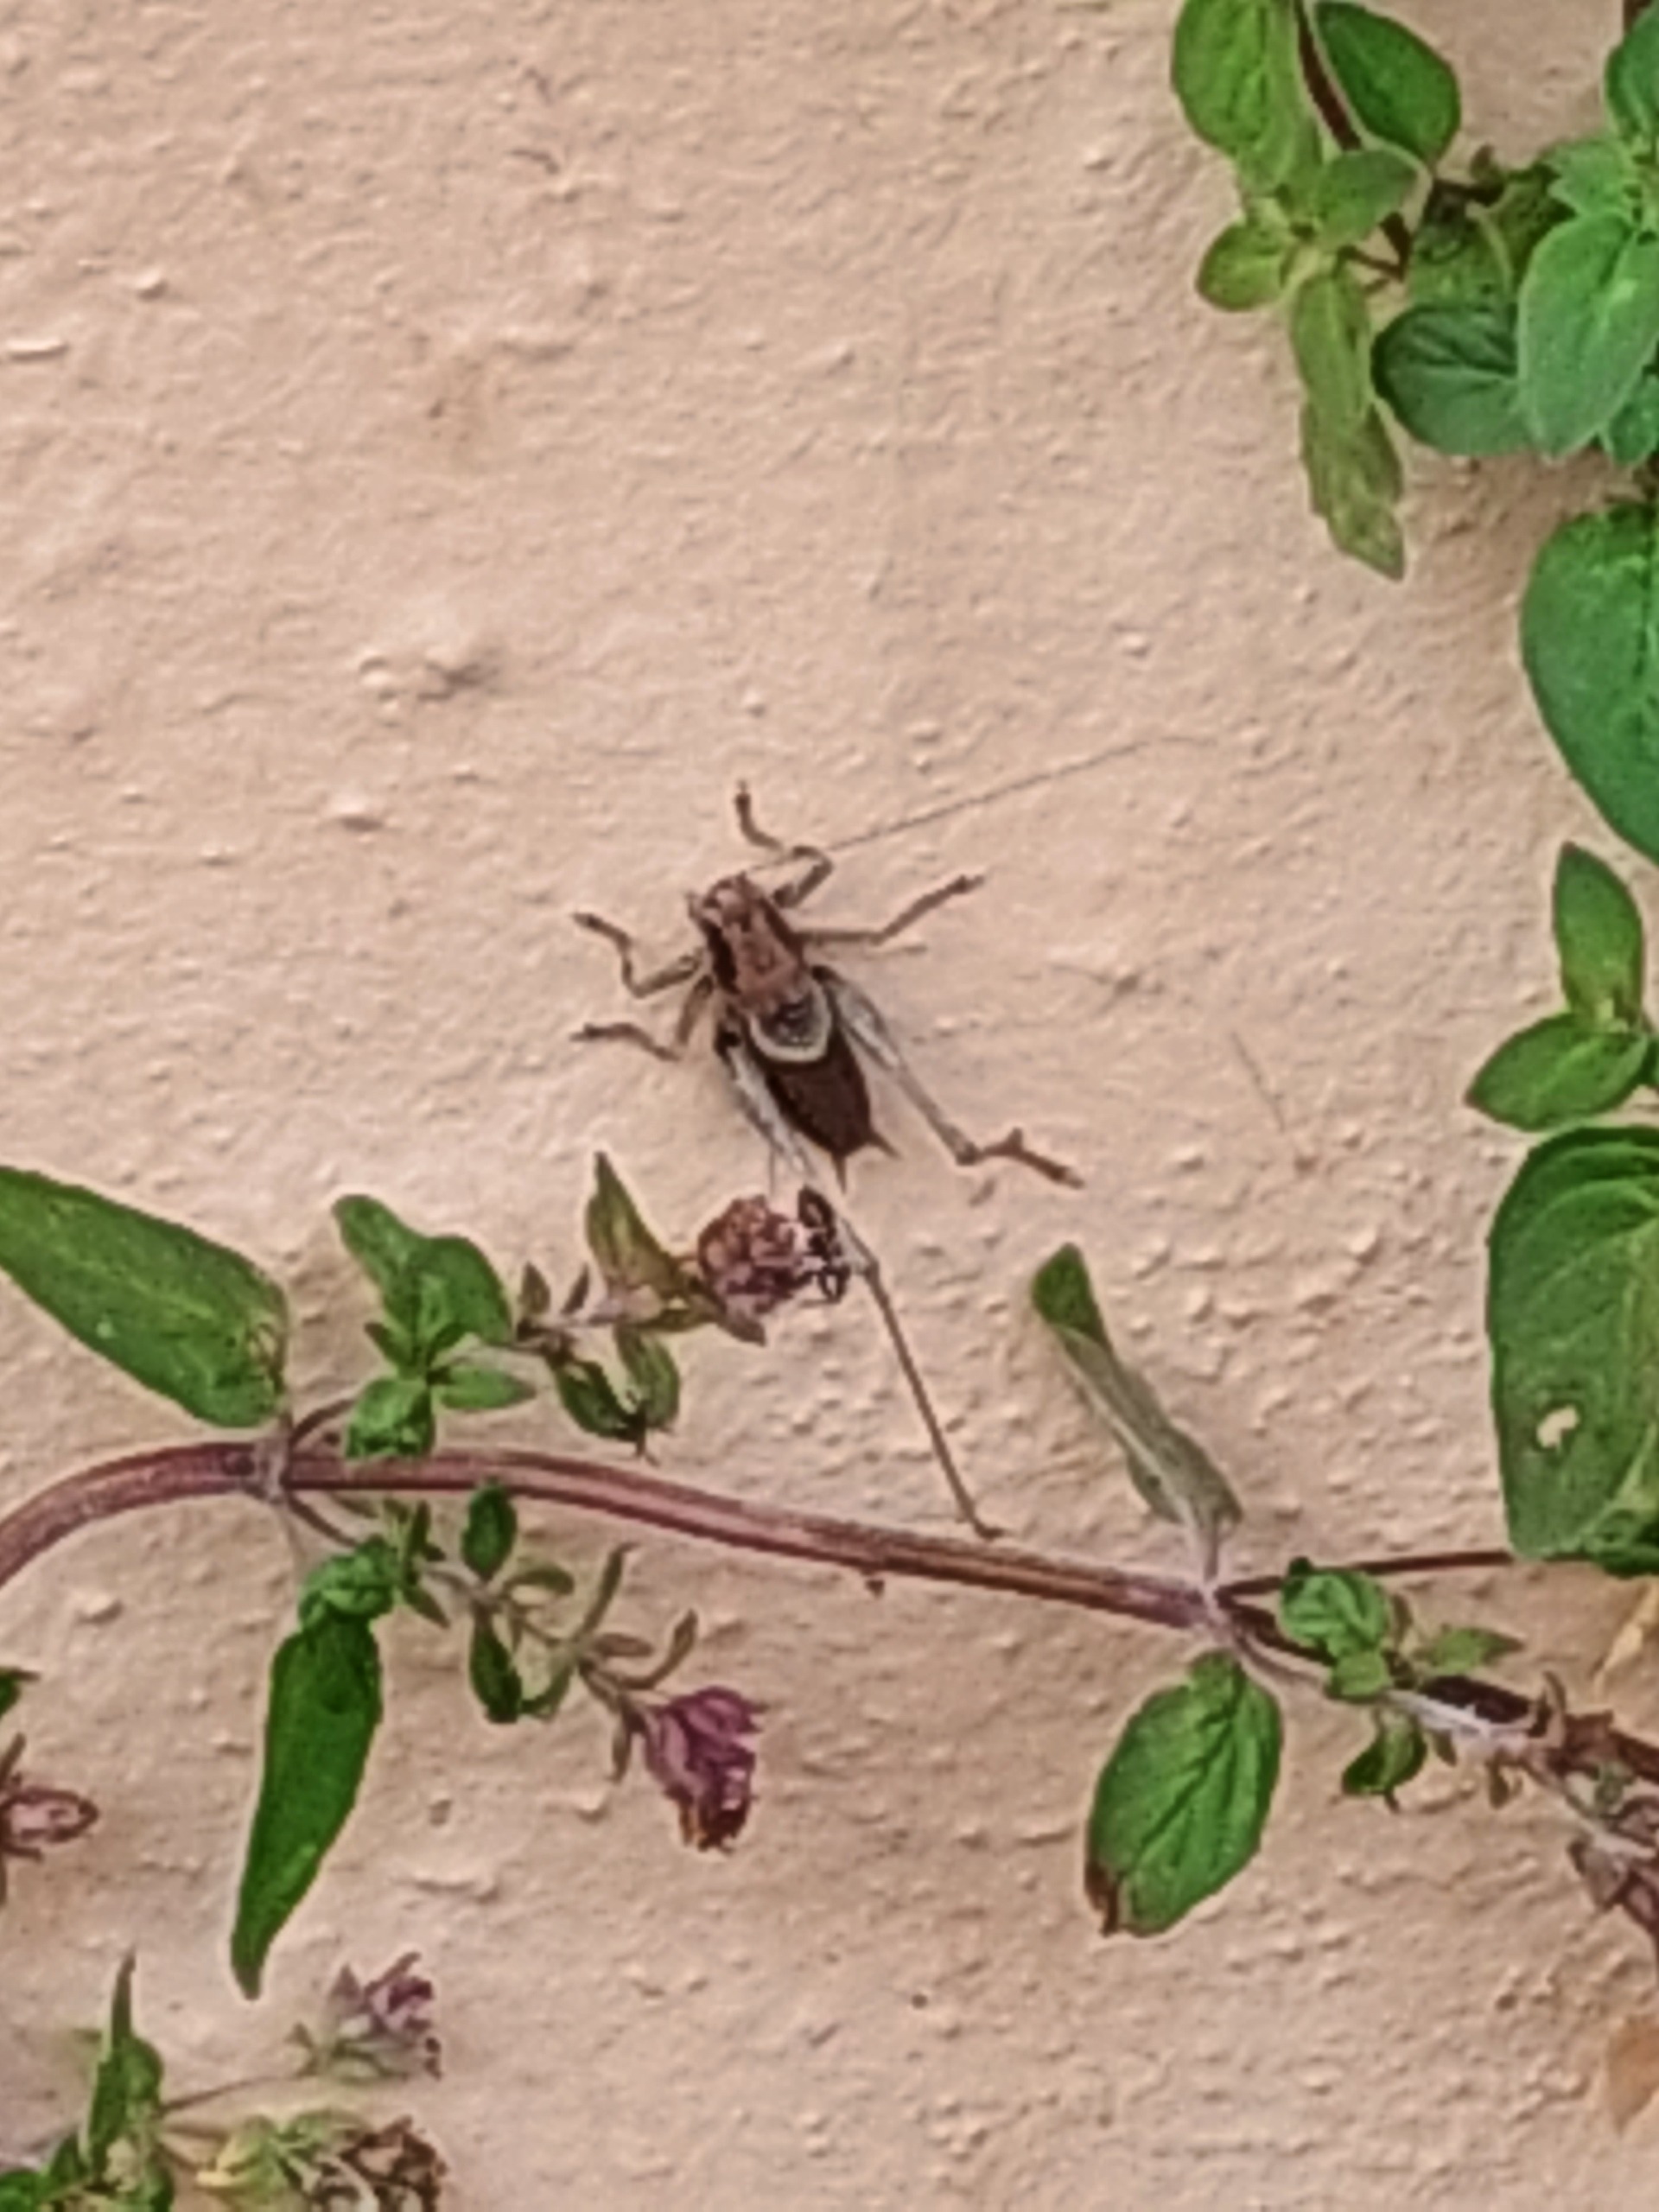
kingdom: Animalia
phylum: Arthropoda
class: Insecta
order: Orthoptera
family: Tettigoniidae
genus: Pholidoptera
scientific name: Pholidoptera griseoaptera
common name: Buskgræshoppe
